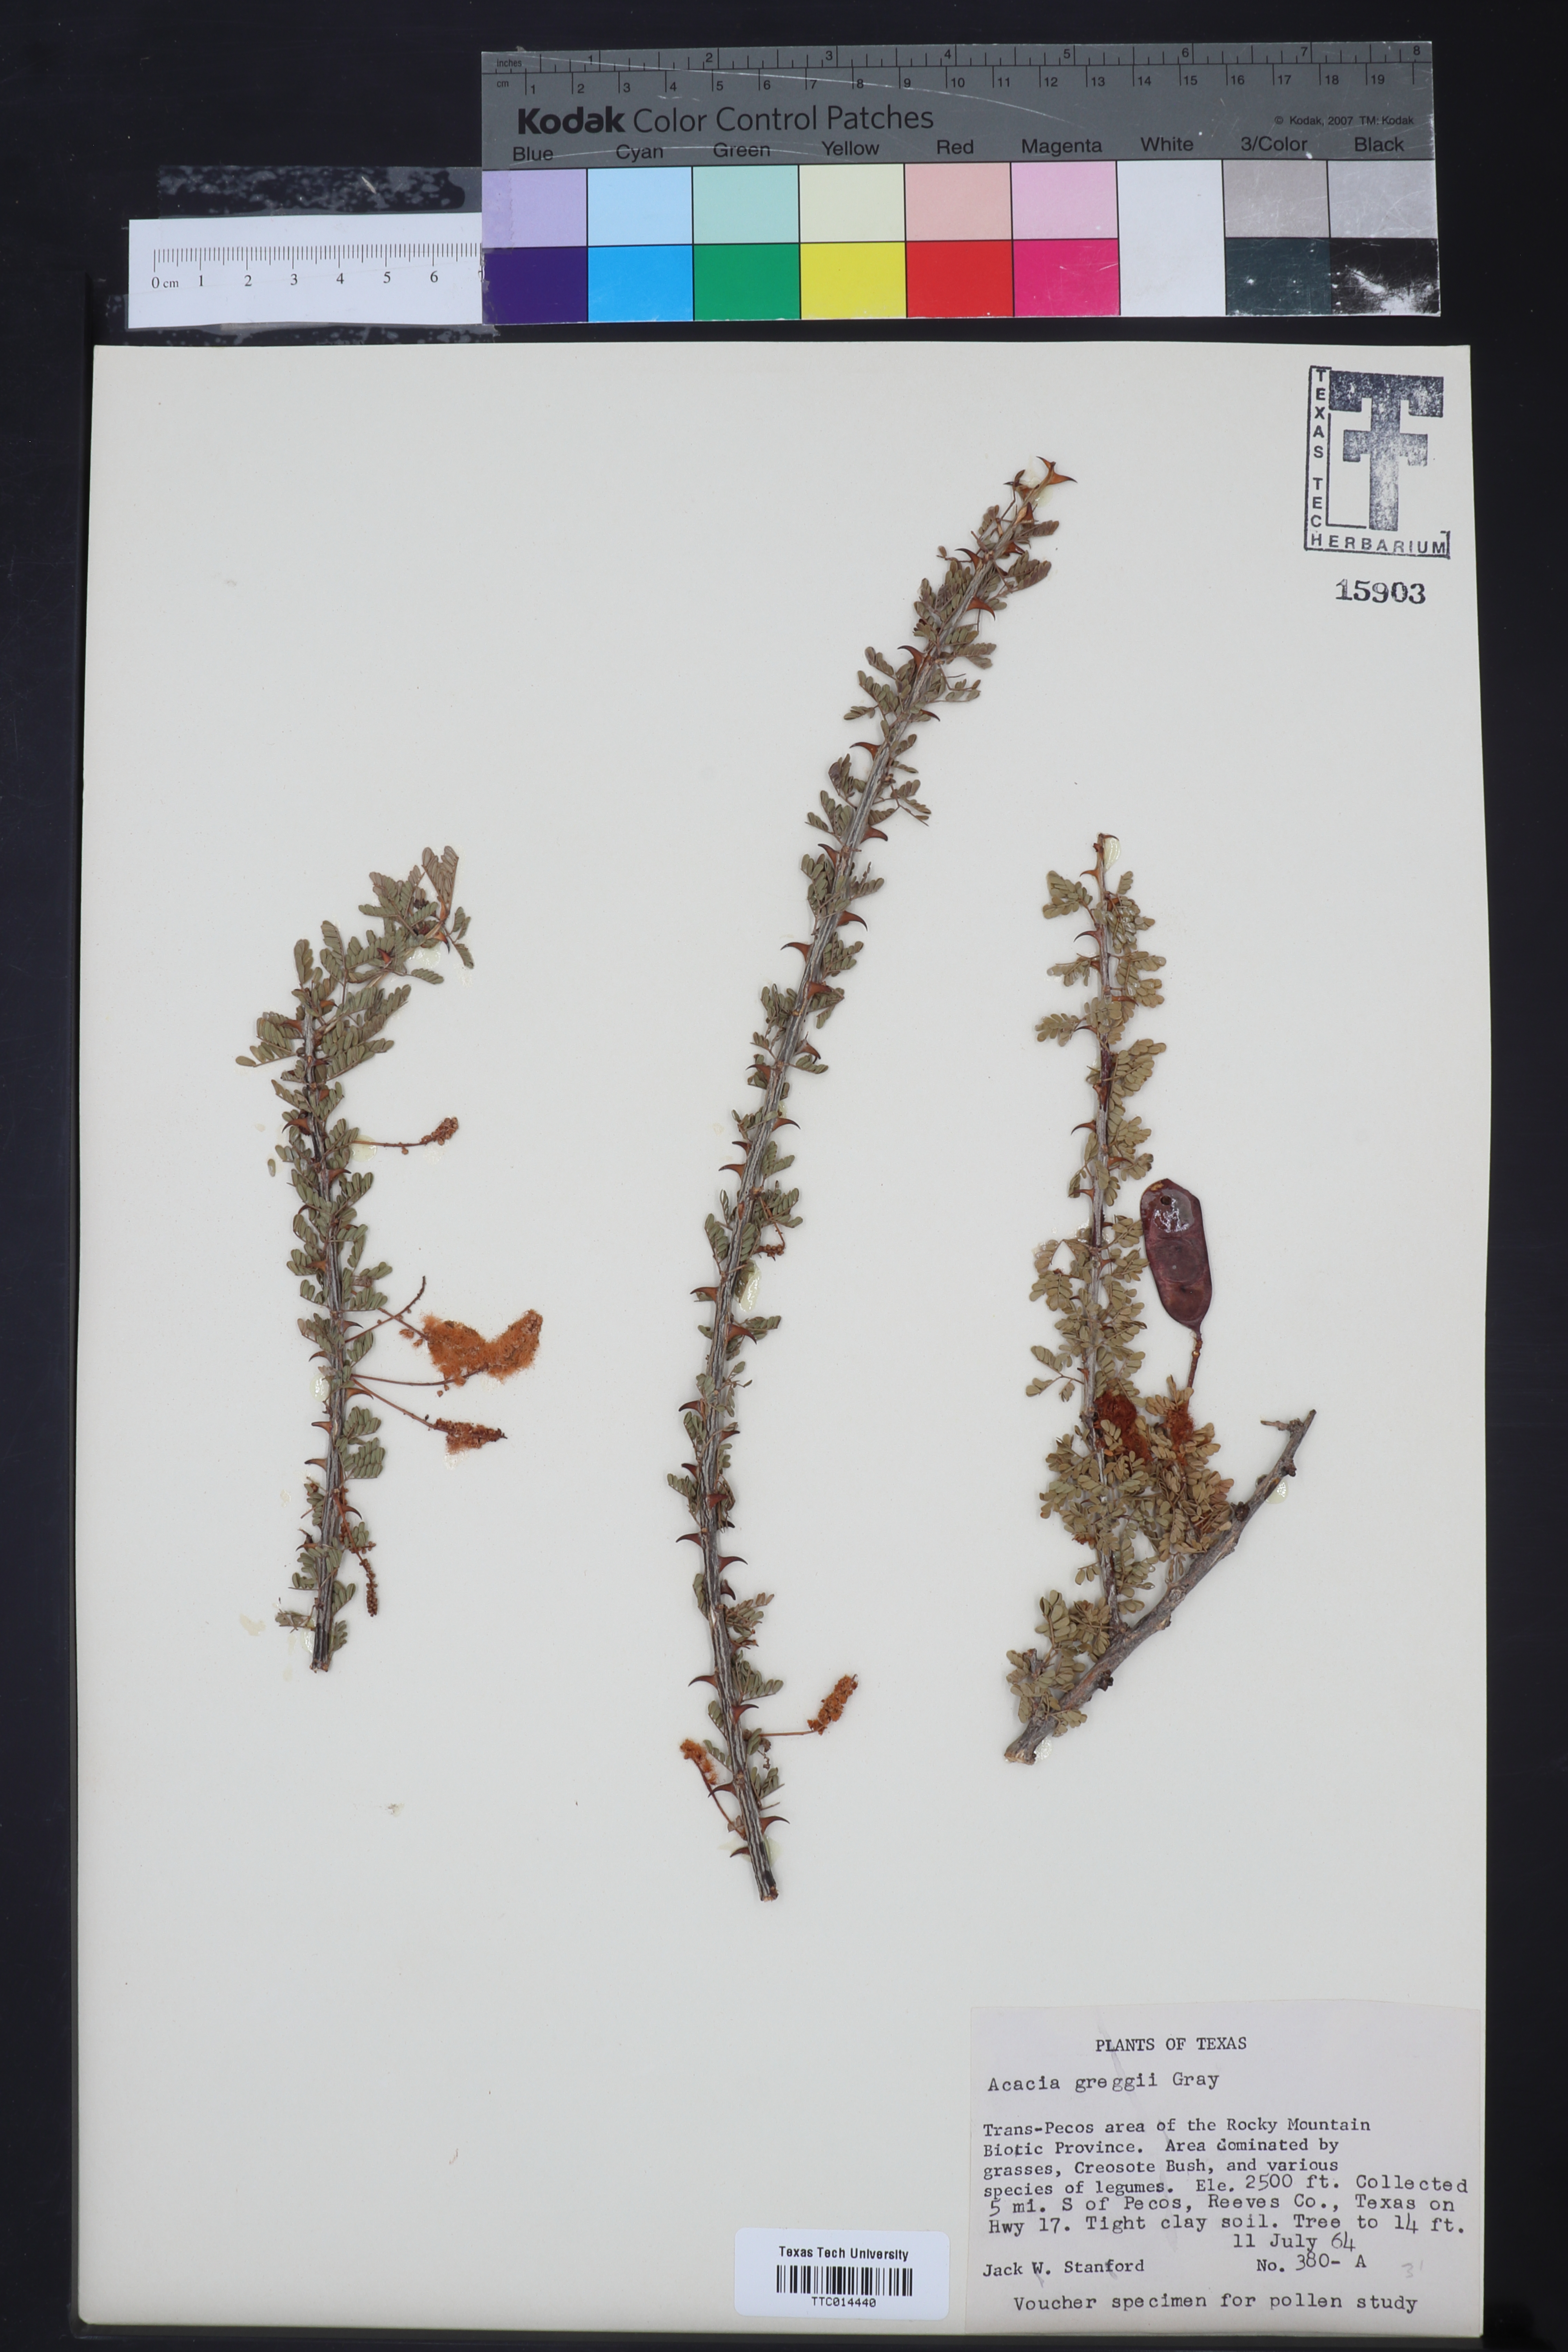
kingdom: Plantae
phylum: Tracheophyta
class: Magnoliopsida
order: Fabales
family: Fabaceae
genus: Senegalia
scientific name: Senegalia greggii
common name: Texas-mimosa
